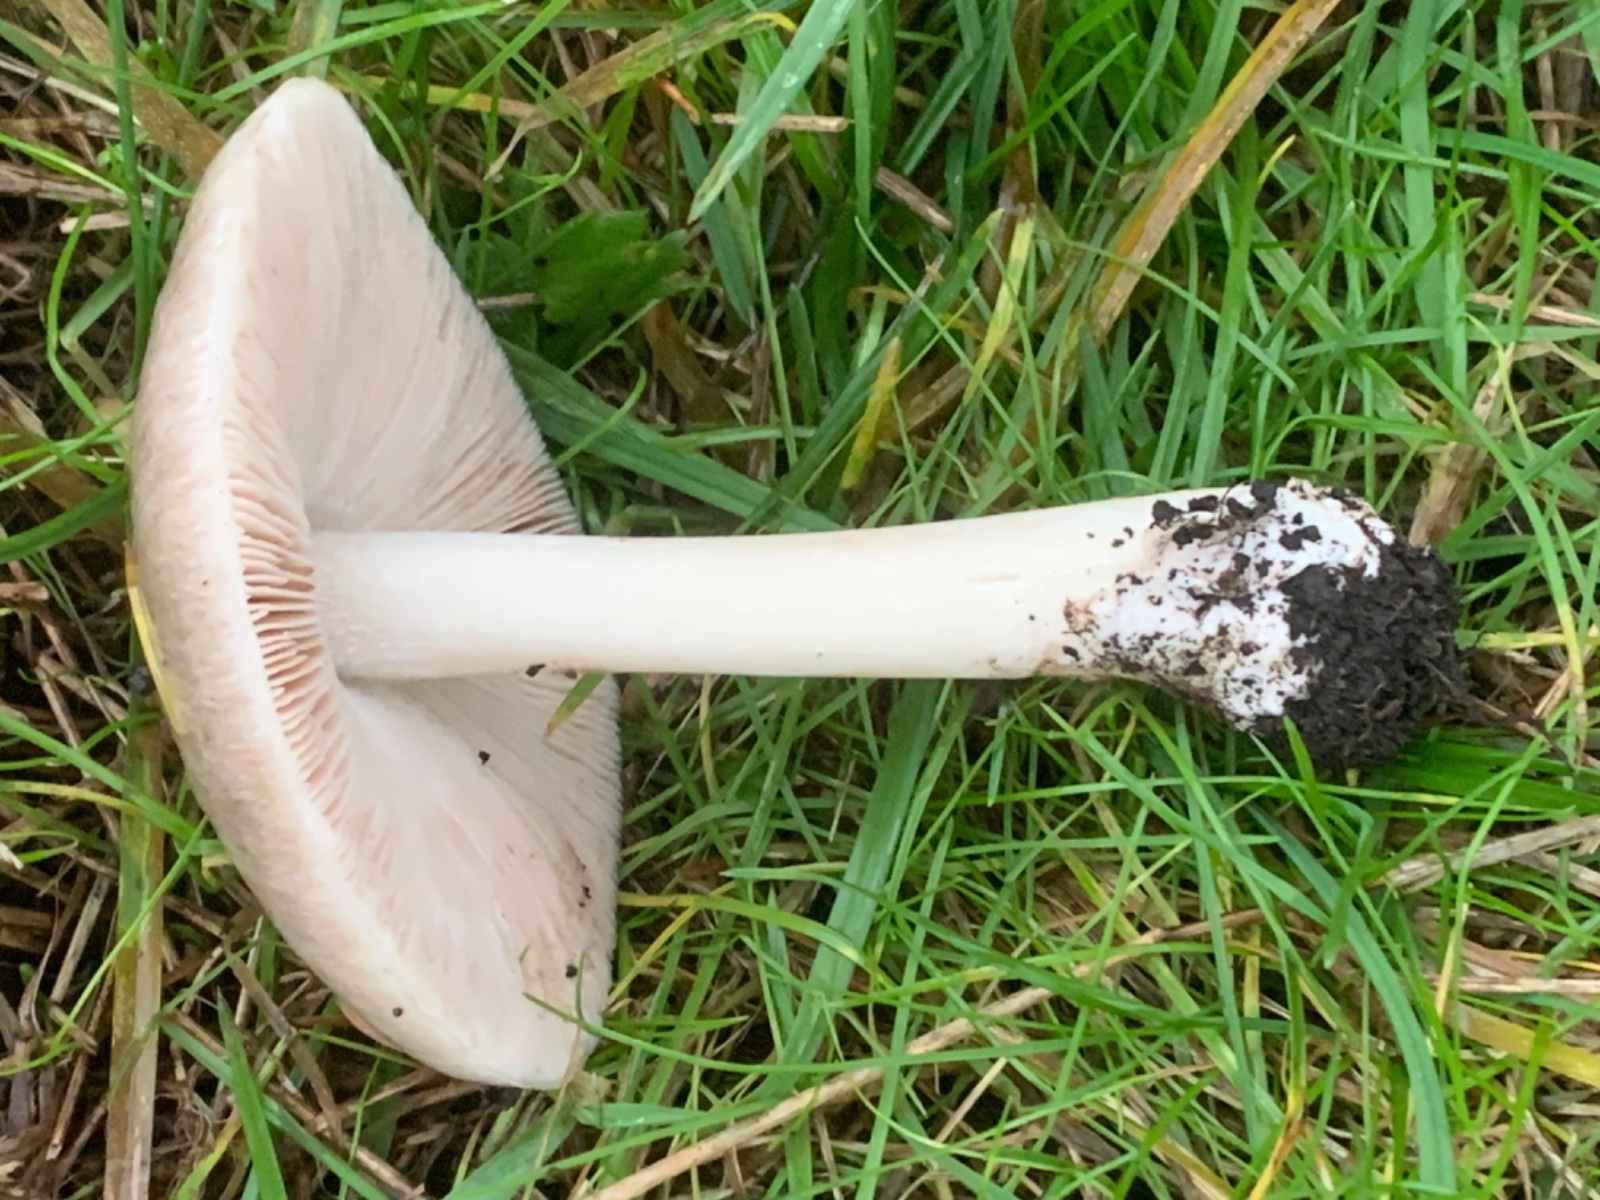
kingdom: Fungi
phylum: Basidiomycota
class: Agaricomycetes
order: Agaricales
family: Pluteaceae
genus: Volvopluteus
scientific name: Volvopluteus gloiocephalus
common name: høj posesvamp
